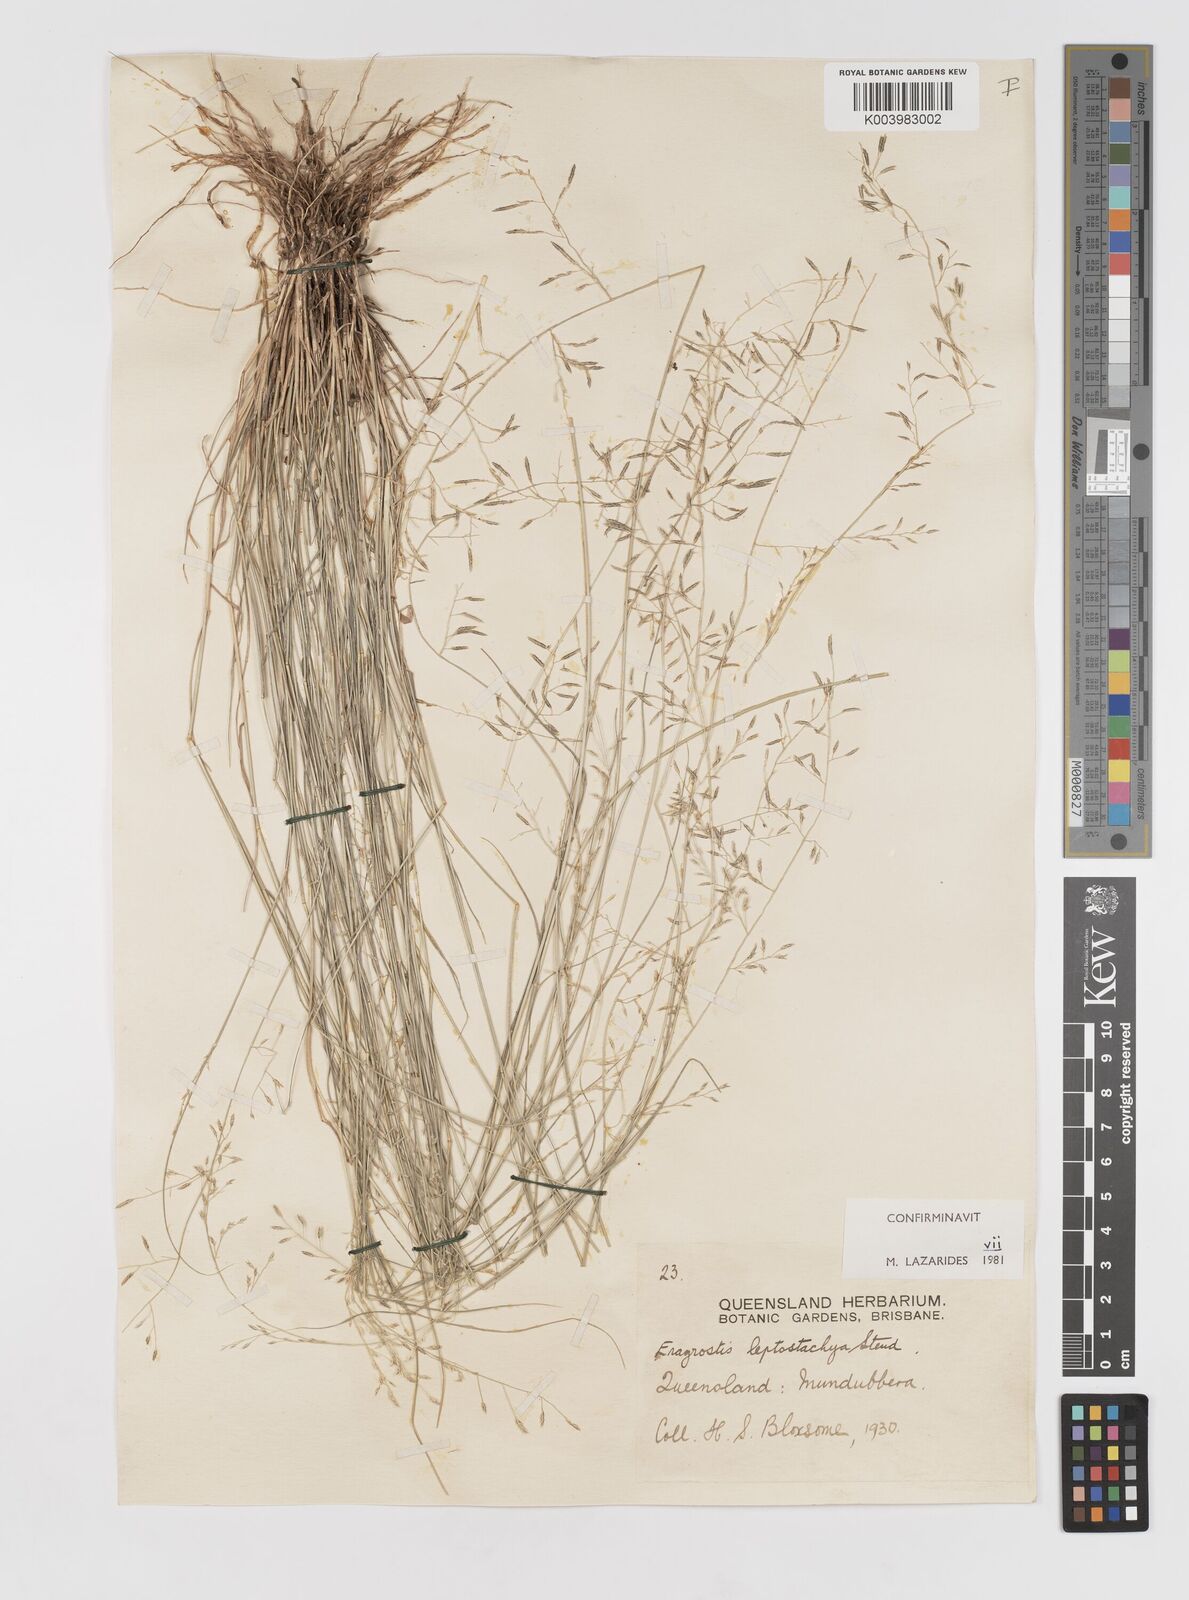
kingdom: Plantae
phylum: Tracheophyta
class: Liliopsida
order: Poales
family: Poaceae
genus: Eragrostis
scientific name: Eragrostis leptostachya
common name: Australian lovegrass
